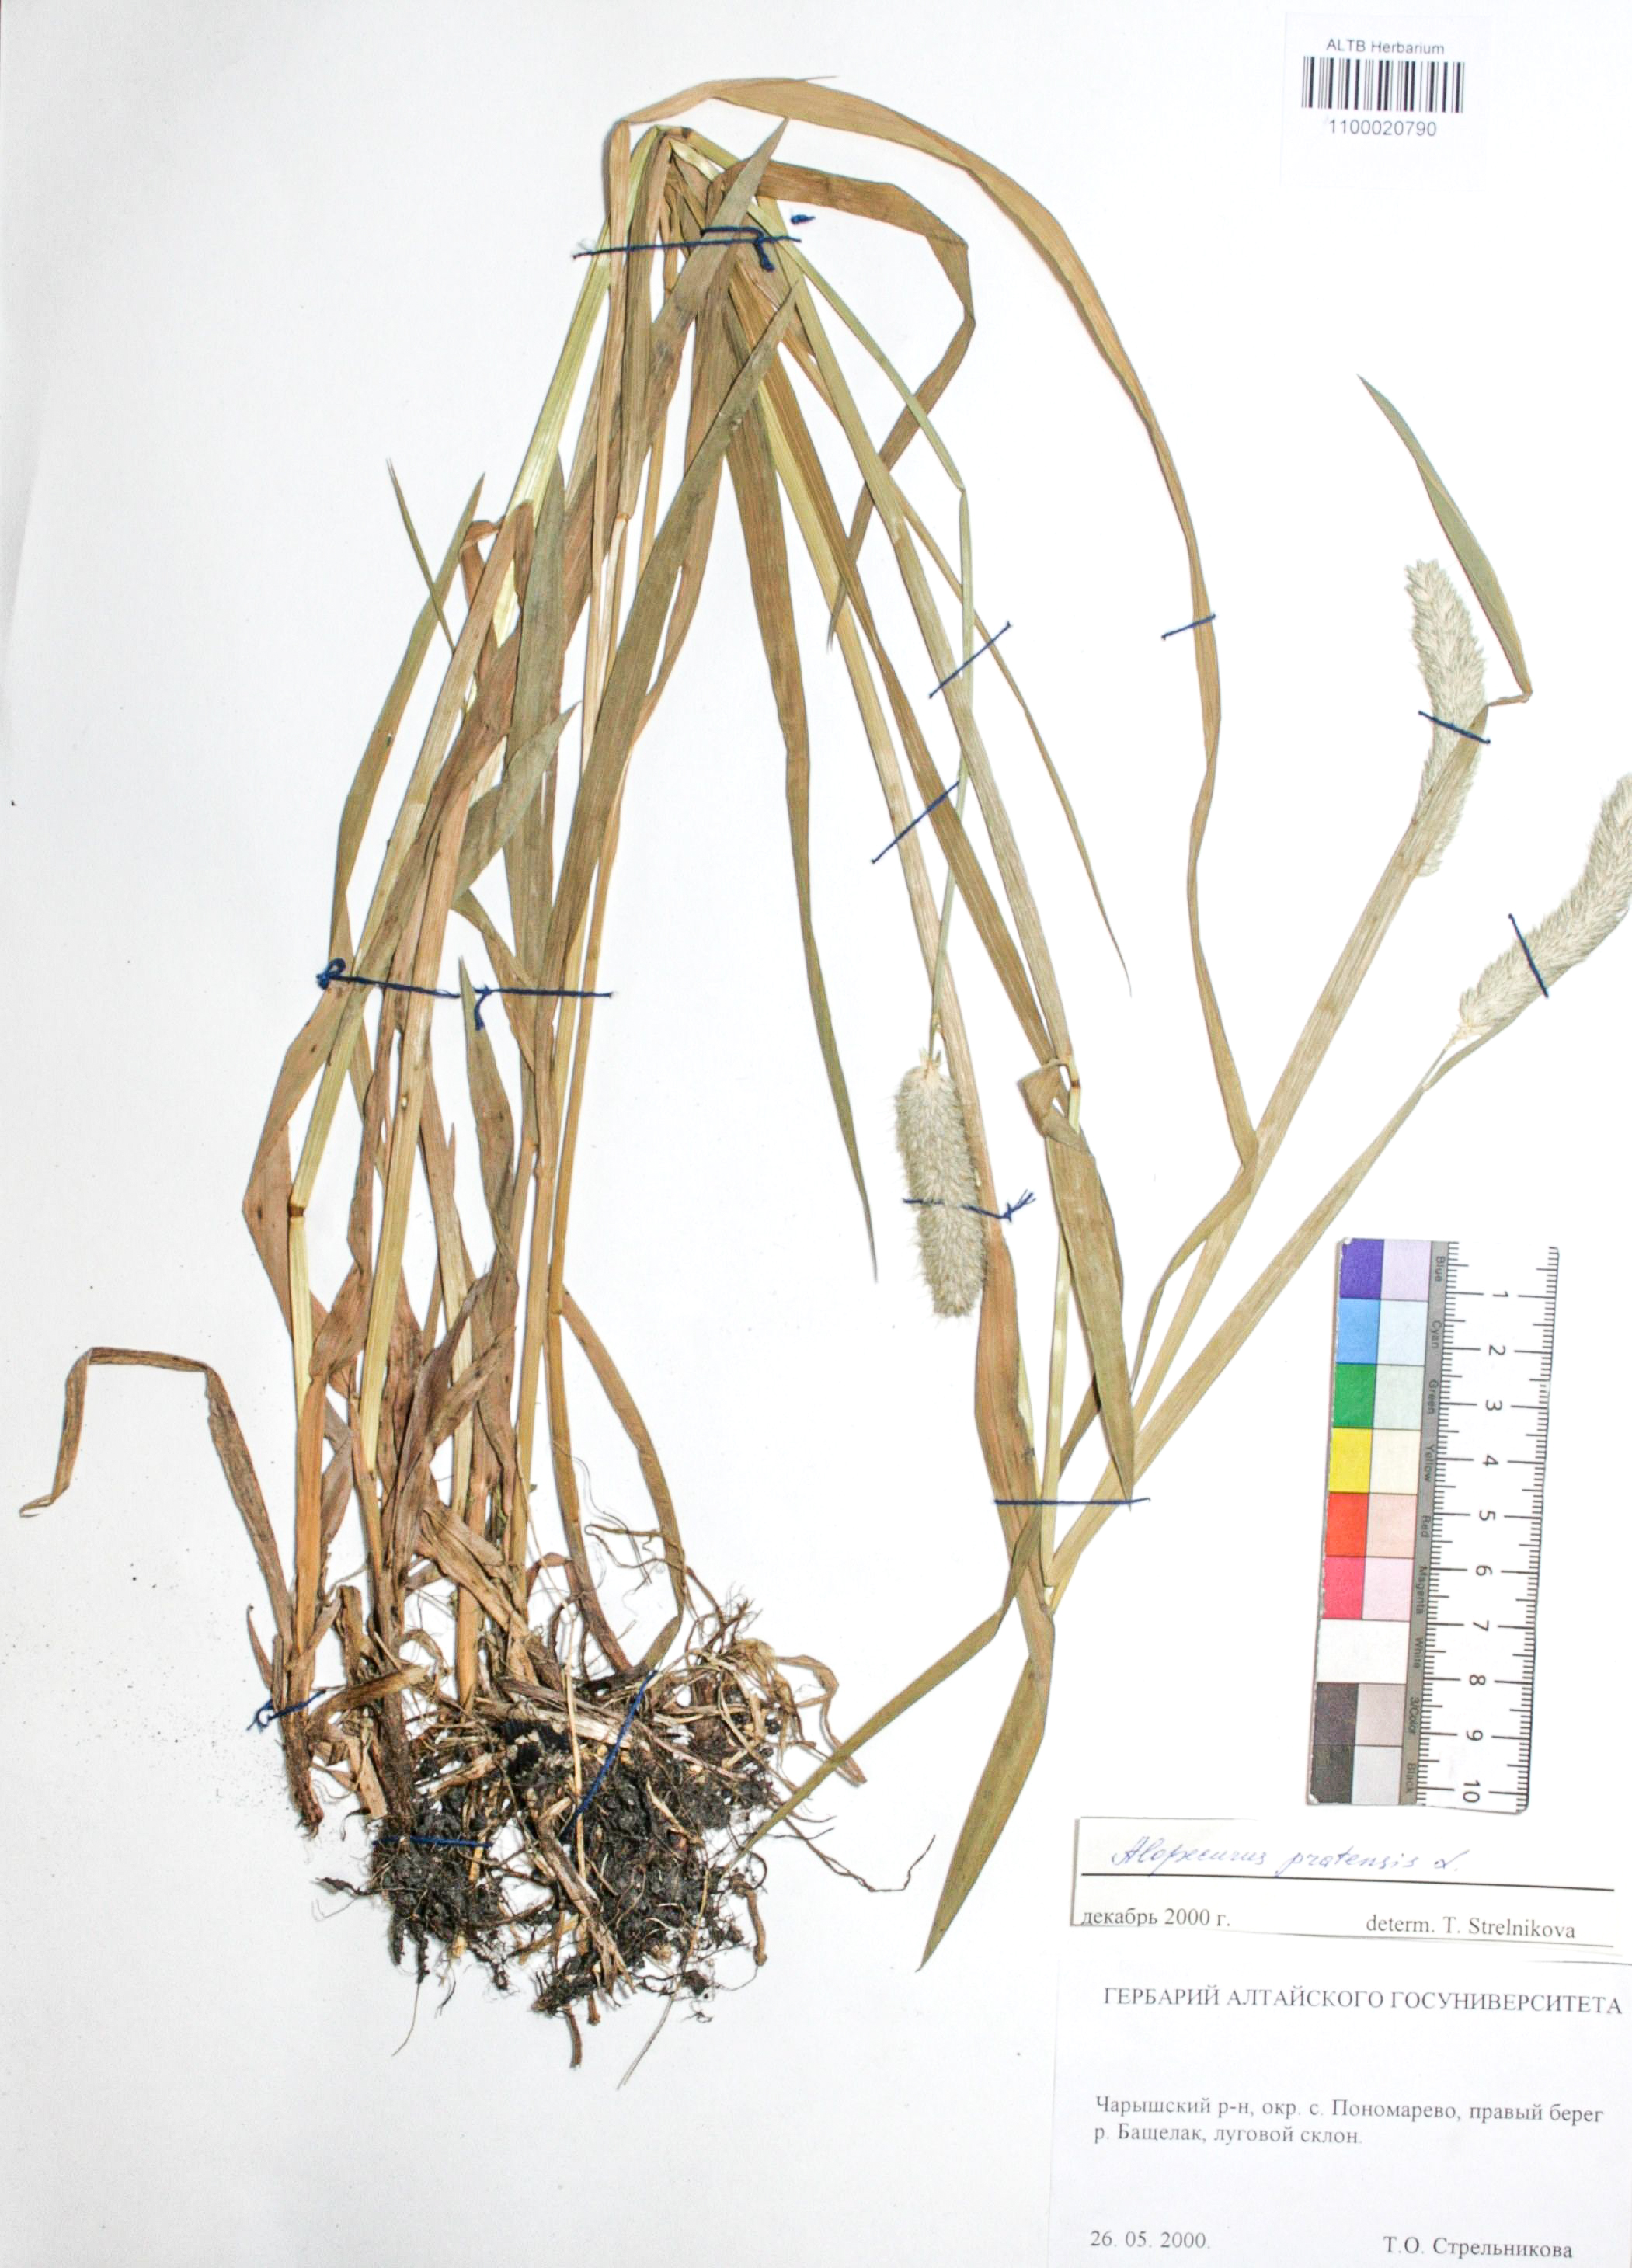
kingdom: Plantae
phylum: Tracheophyta
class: Liliopsida
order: Poales
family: Poaceae
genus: Alopecurus
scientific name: Alopecurus pratensis
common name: Meadow foxtail
